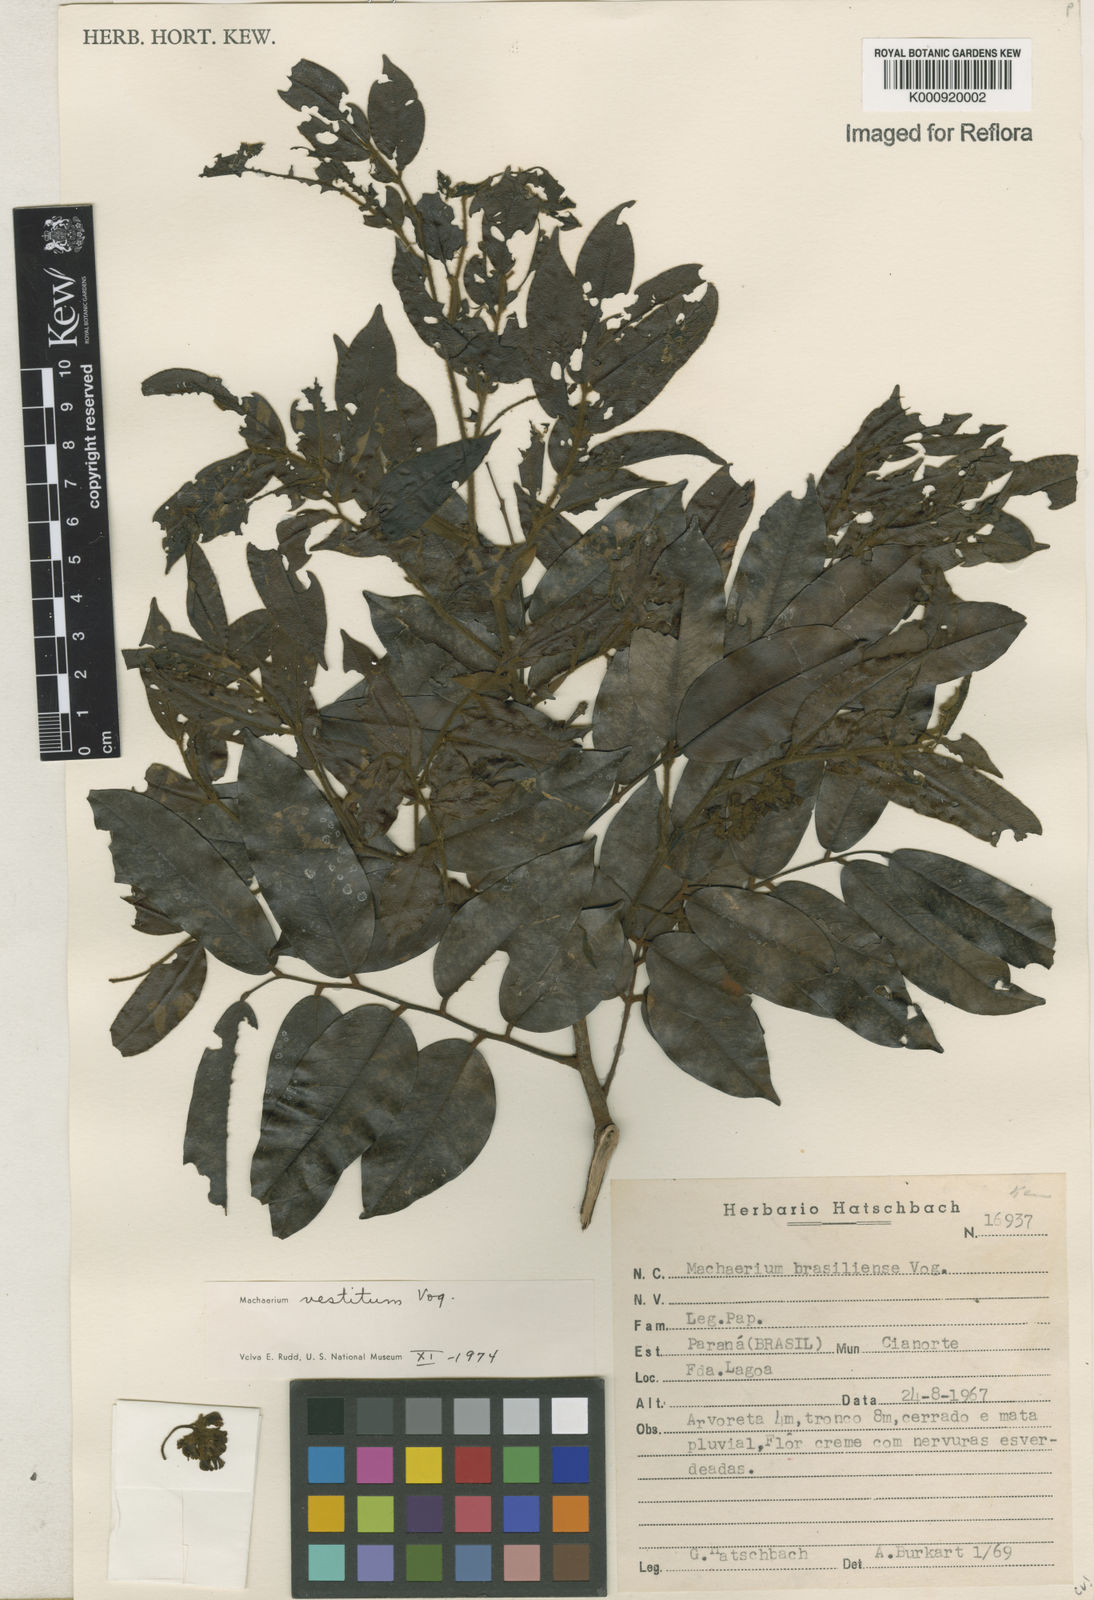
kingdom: Plantae
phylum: Tracheophyta
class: Magnoliopsida
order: Fabales
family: Fabaceae
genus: Machaerium
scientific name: Machaerium brasiliense
